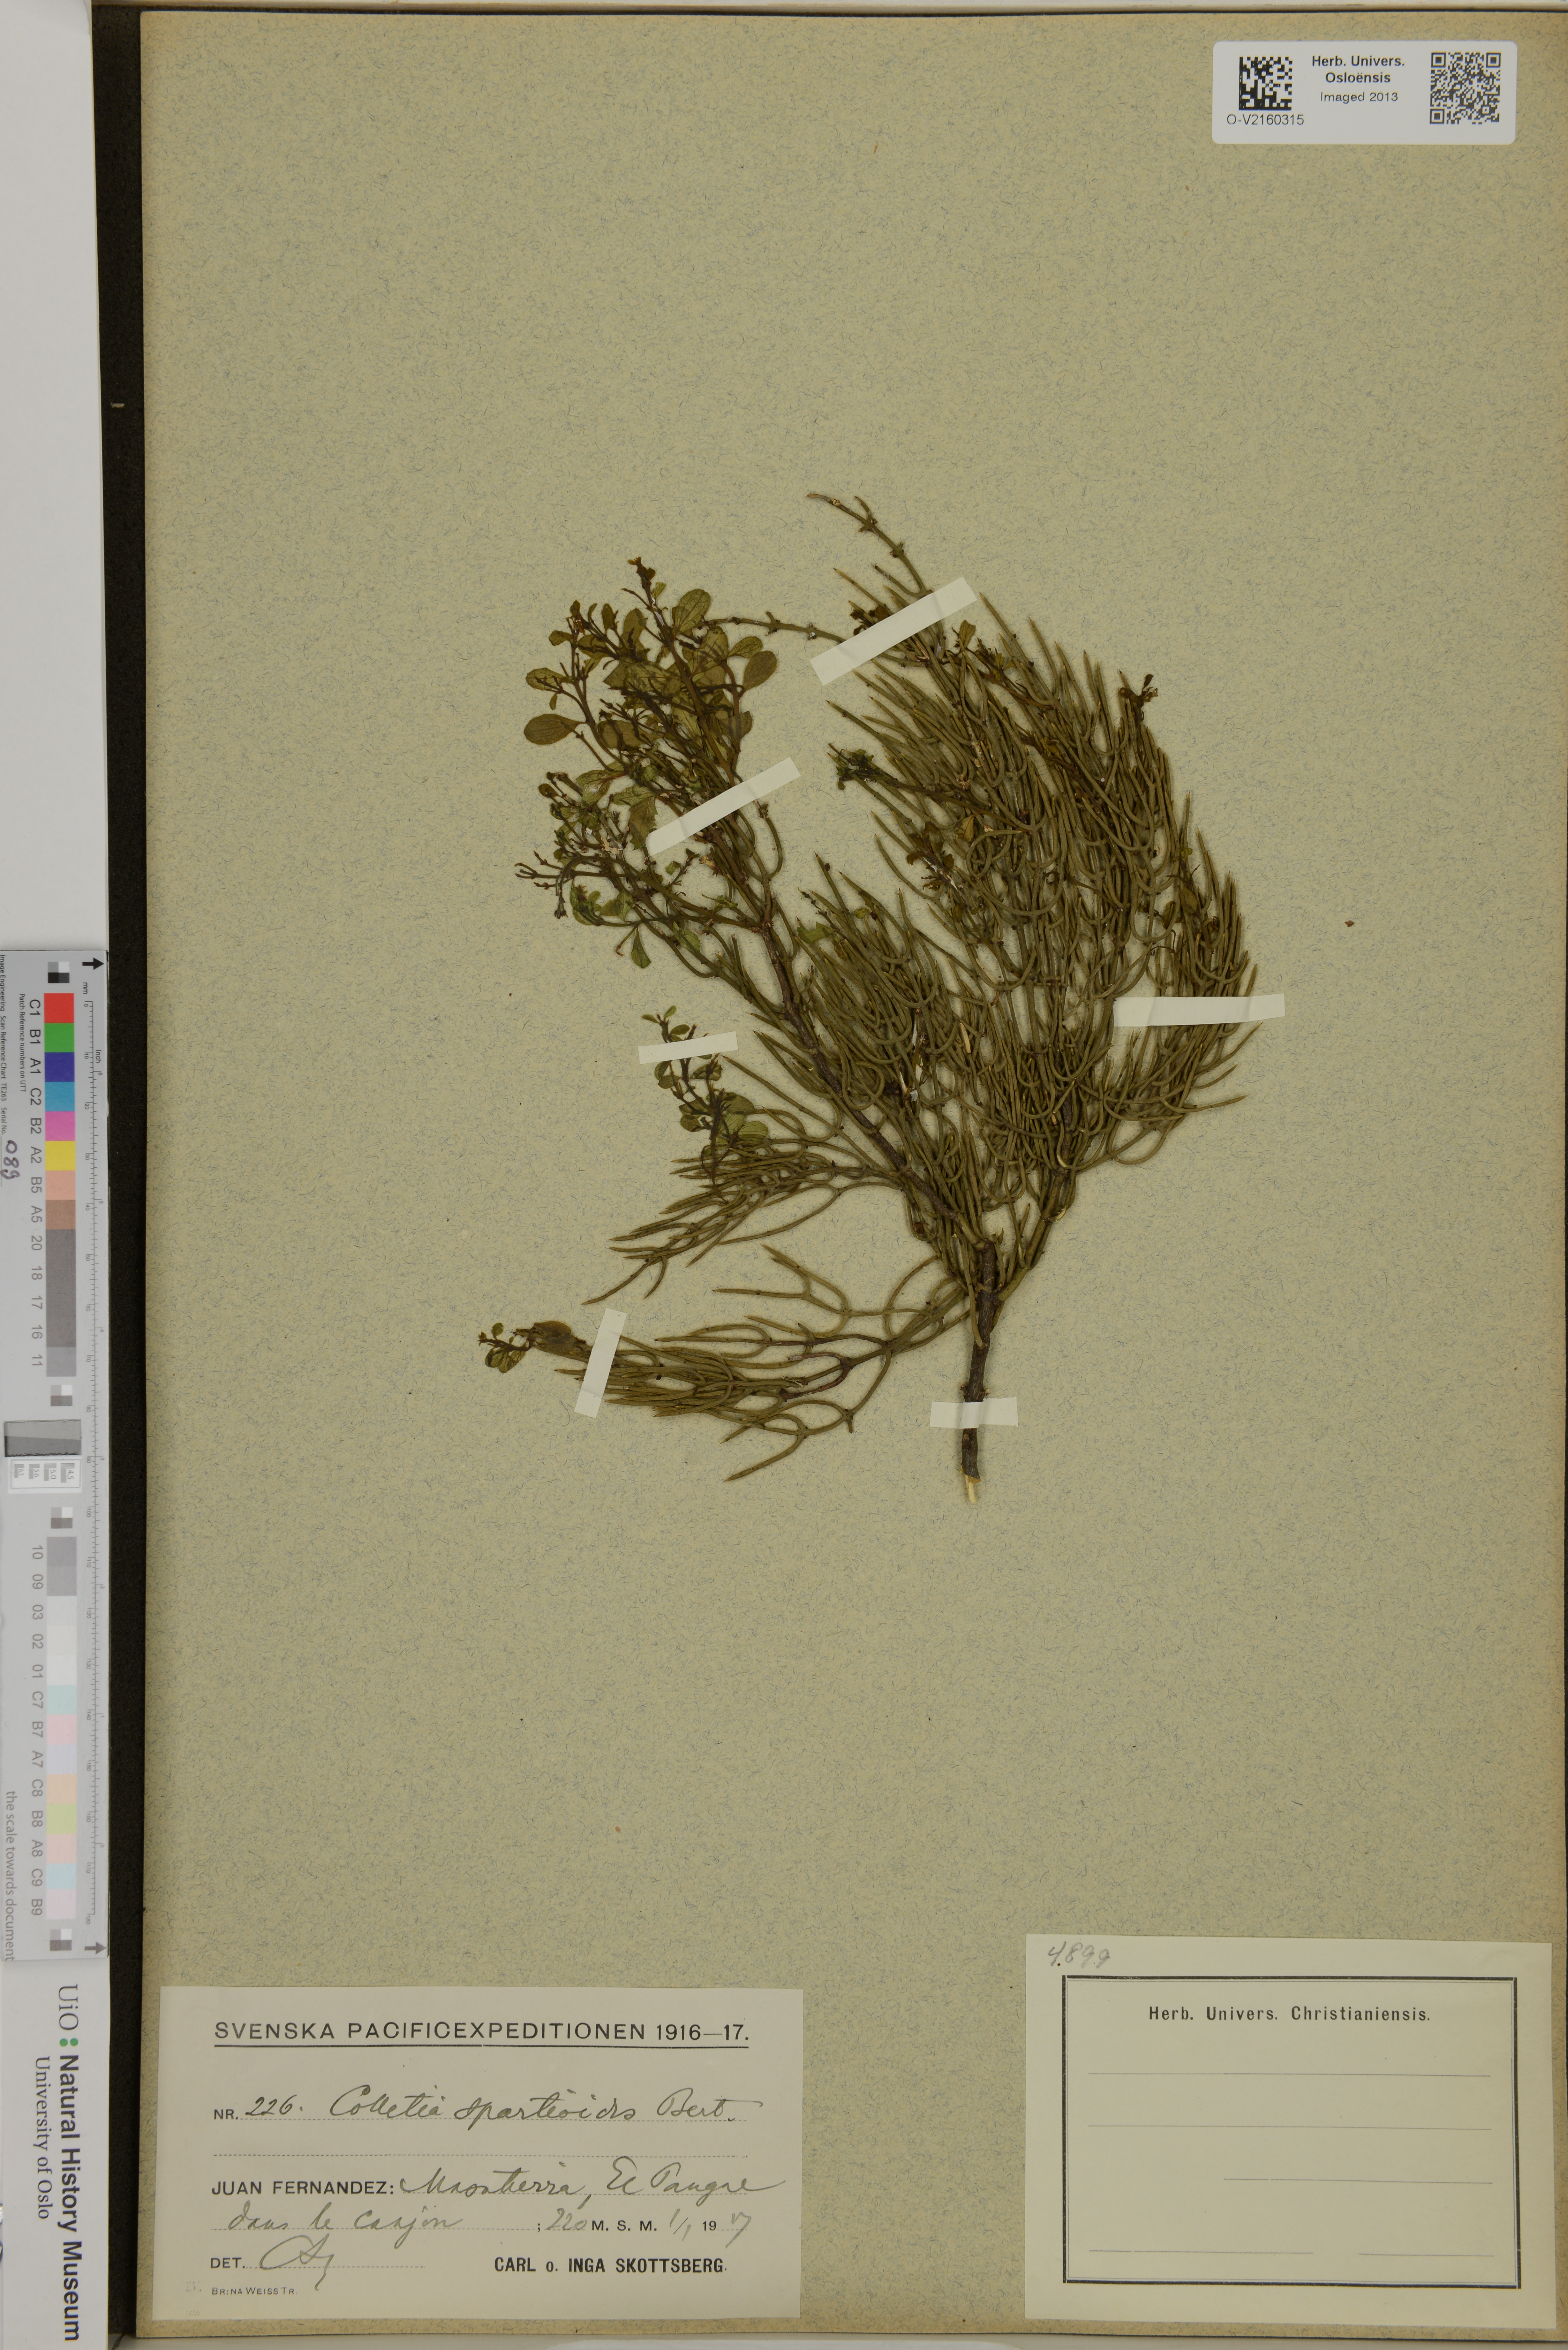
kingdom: Plantae
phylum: Tracheophyta
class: Magnoliopsida
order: Rosales
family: Rhamnaceae
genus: Colletia
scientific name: Colletia spartioides
